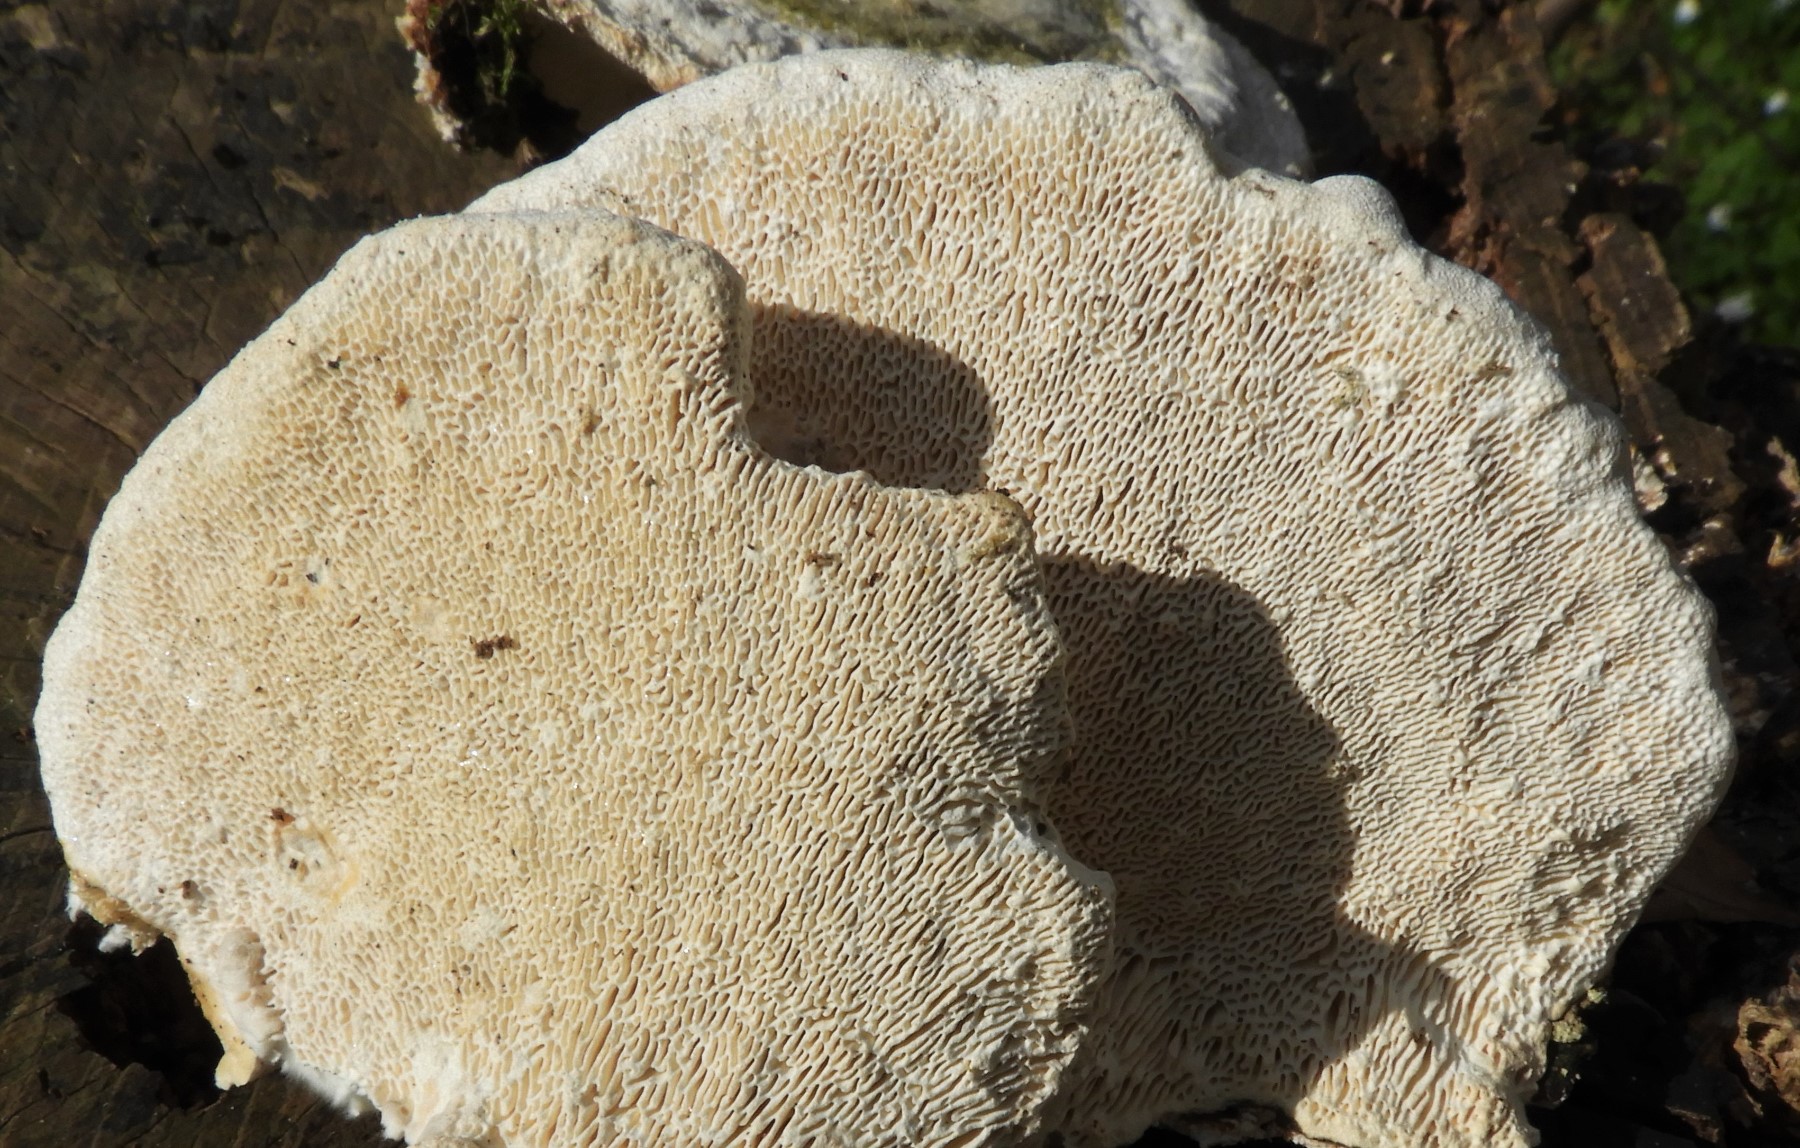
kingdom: Fungi
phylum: Basidiomycota
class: Agaricomycetes
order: Polyporales
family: Polyporaceae
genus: Ganoderma
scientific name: Ganoderma applanatum
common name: flad lakporesvamp
